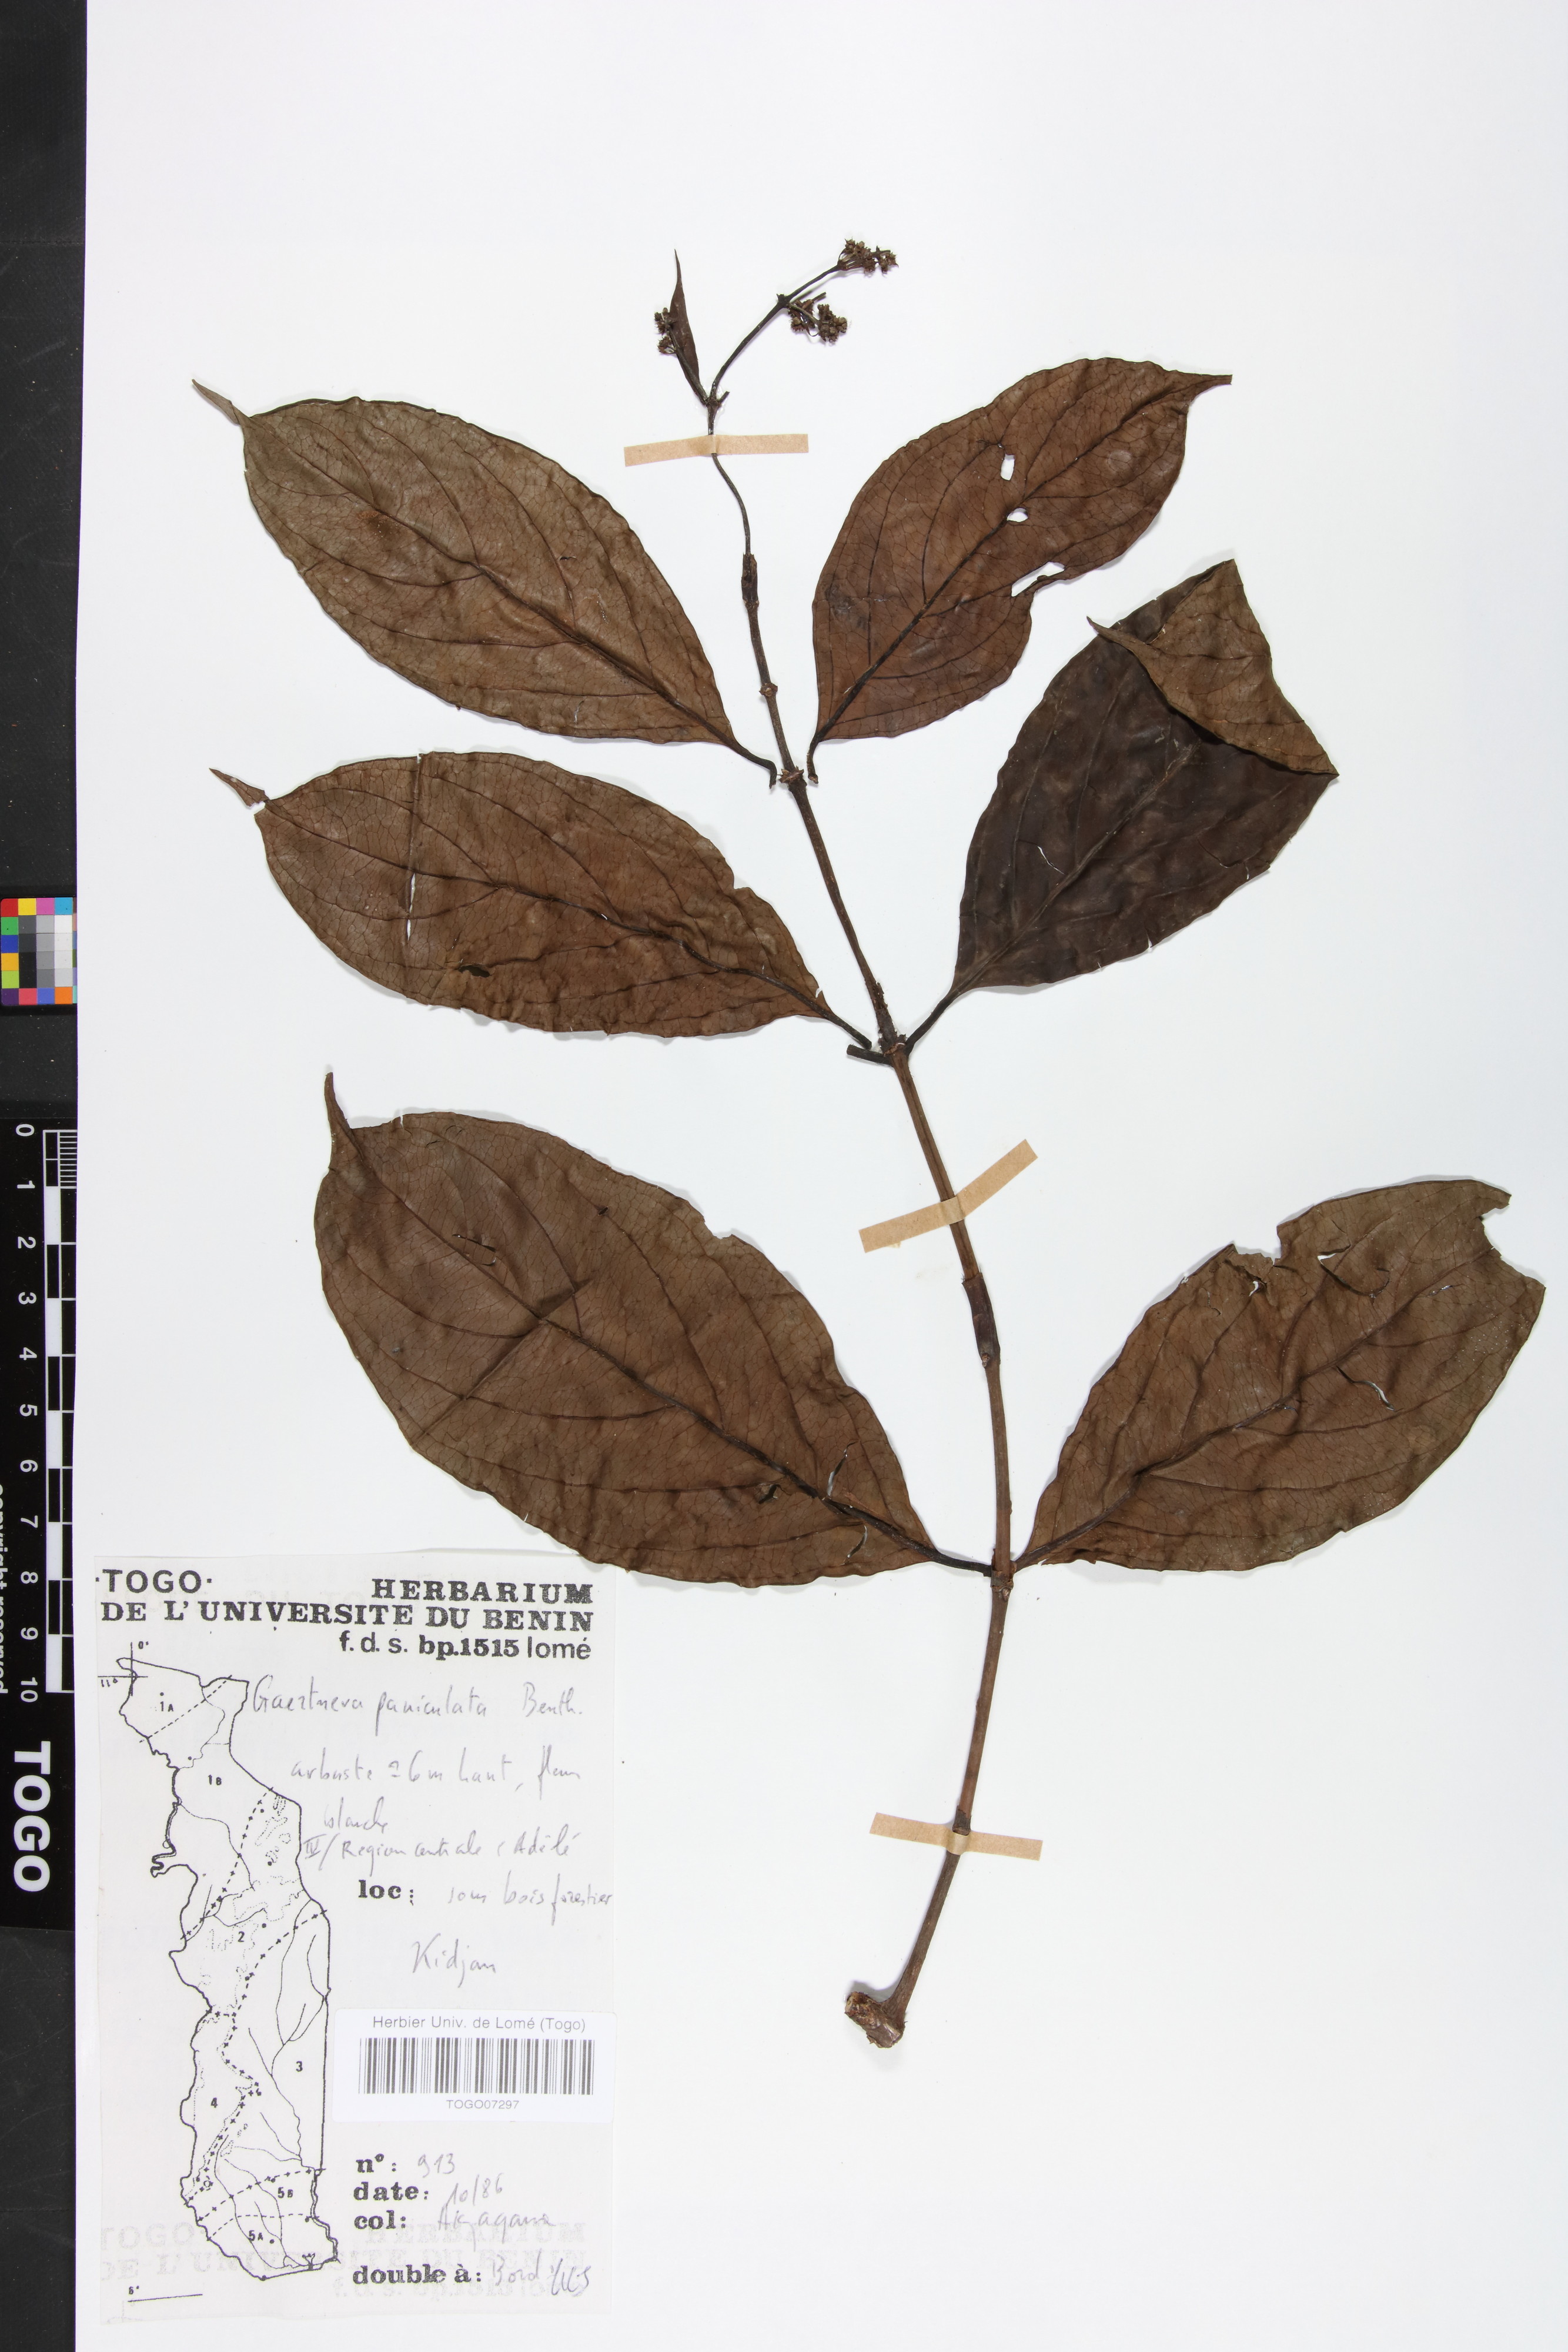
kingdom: Plantae
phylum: Tracheophyta
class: Magnoliopsida
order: Gentianales
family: Rubiaceae
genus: Gaertnera
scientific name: Gaertnera paniculata
